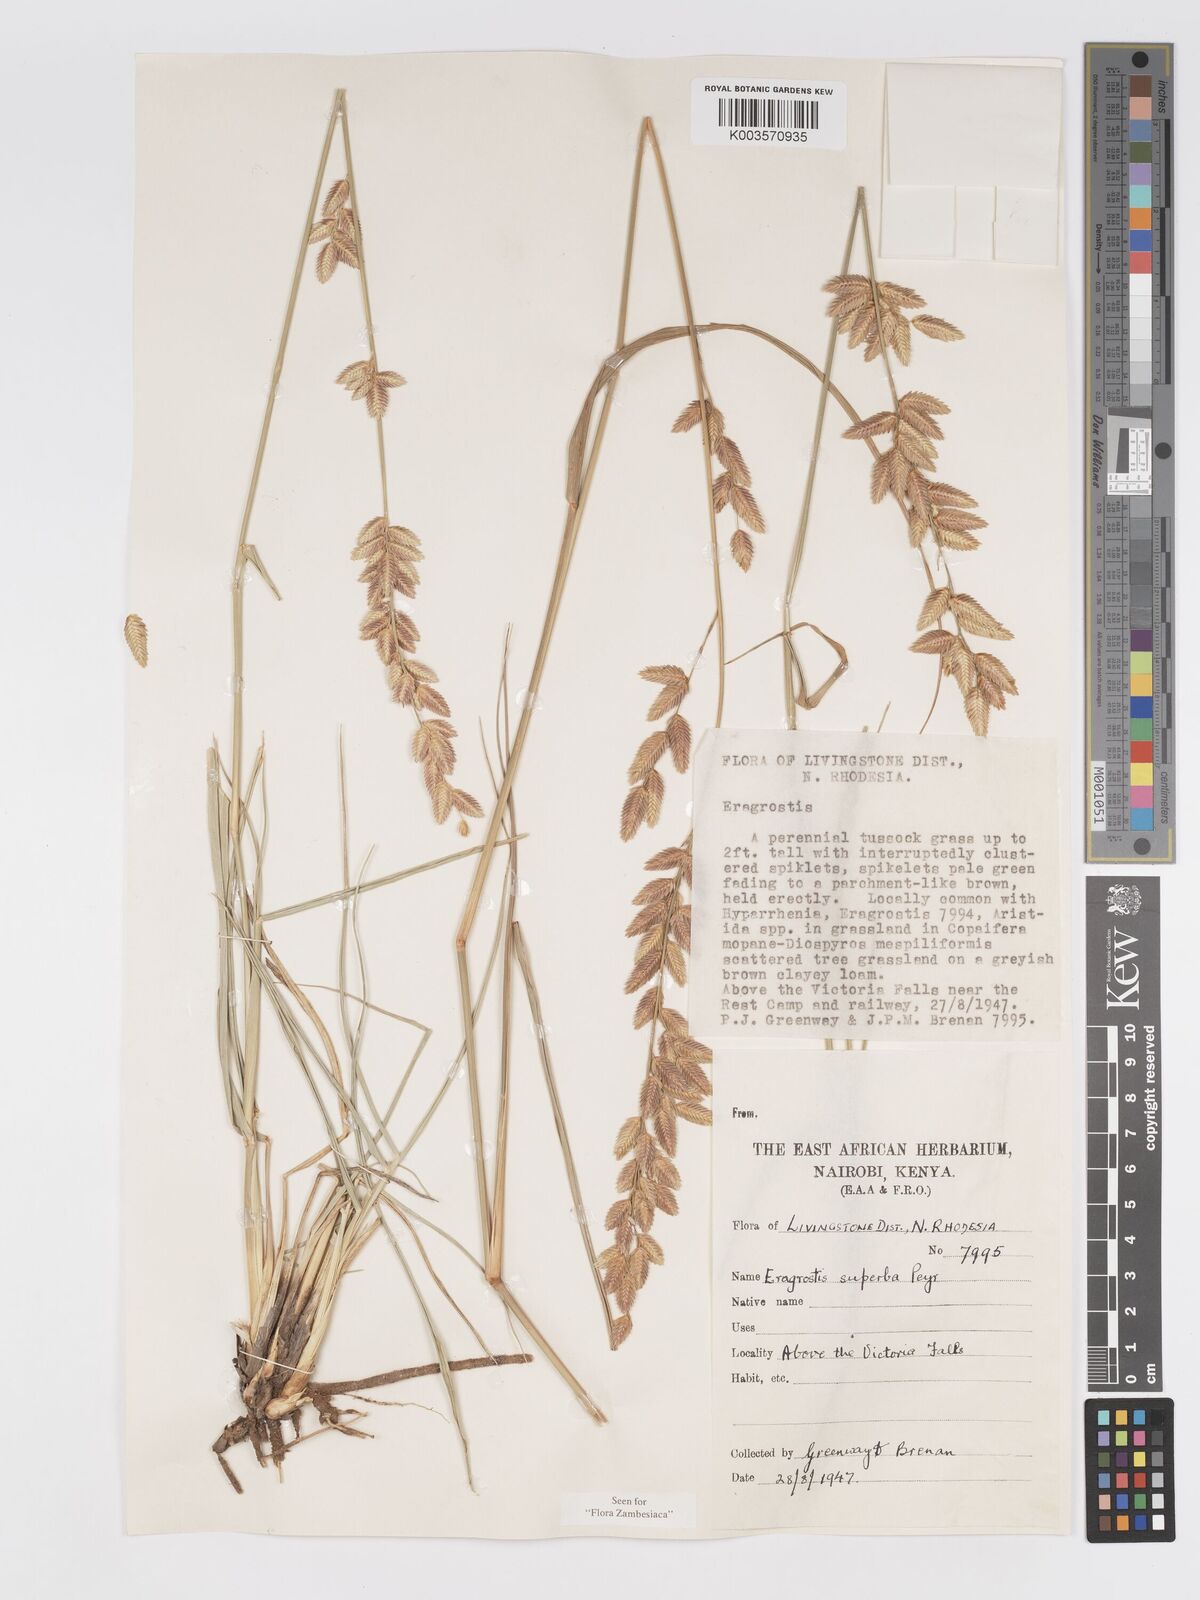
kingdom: Plantae
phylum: Tracheophyta
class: Liliopsida
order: Poales
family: Poaceae
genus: Eragrostis
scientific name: Eragrostis superba
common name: Wilman lovegrass
